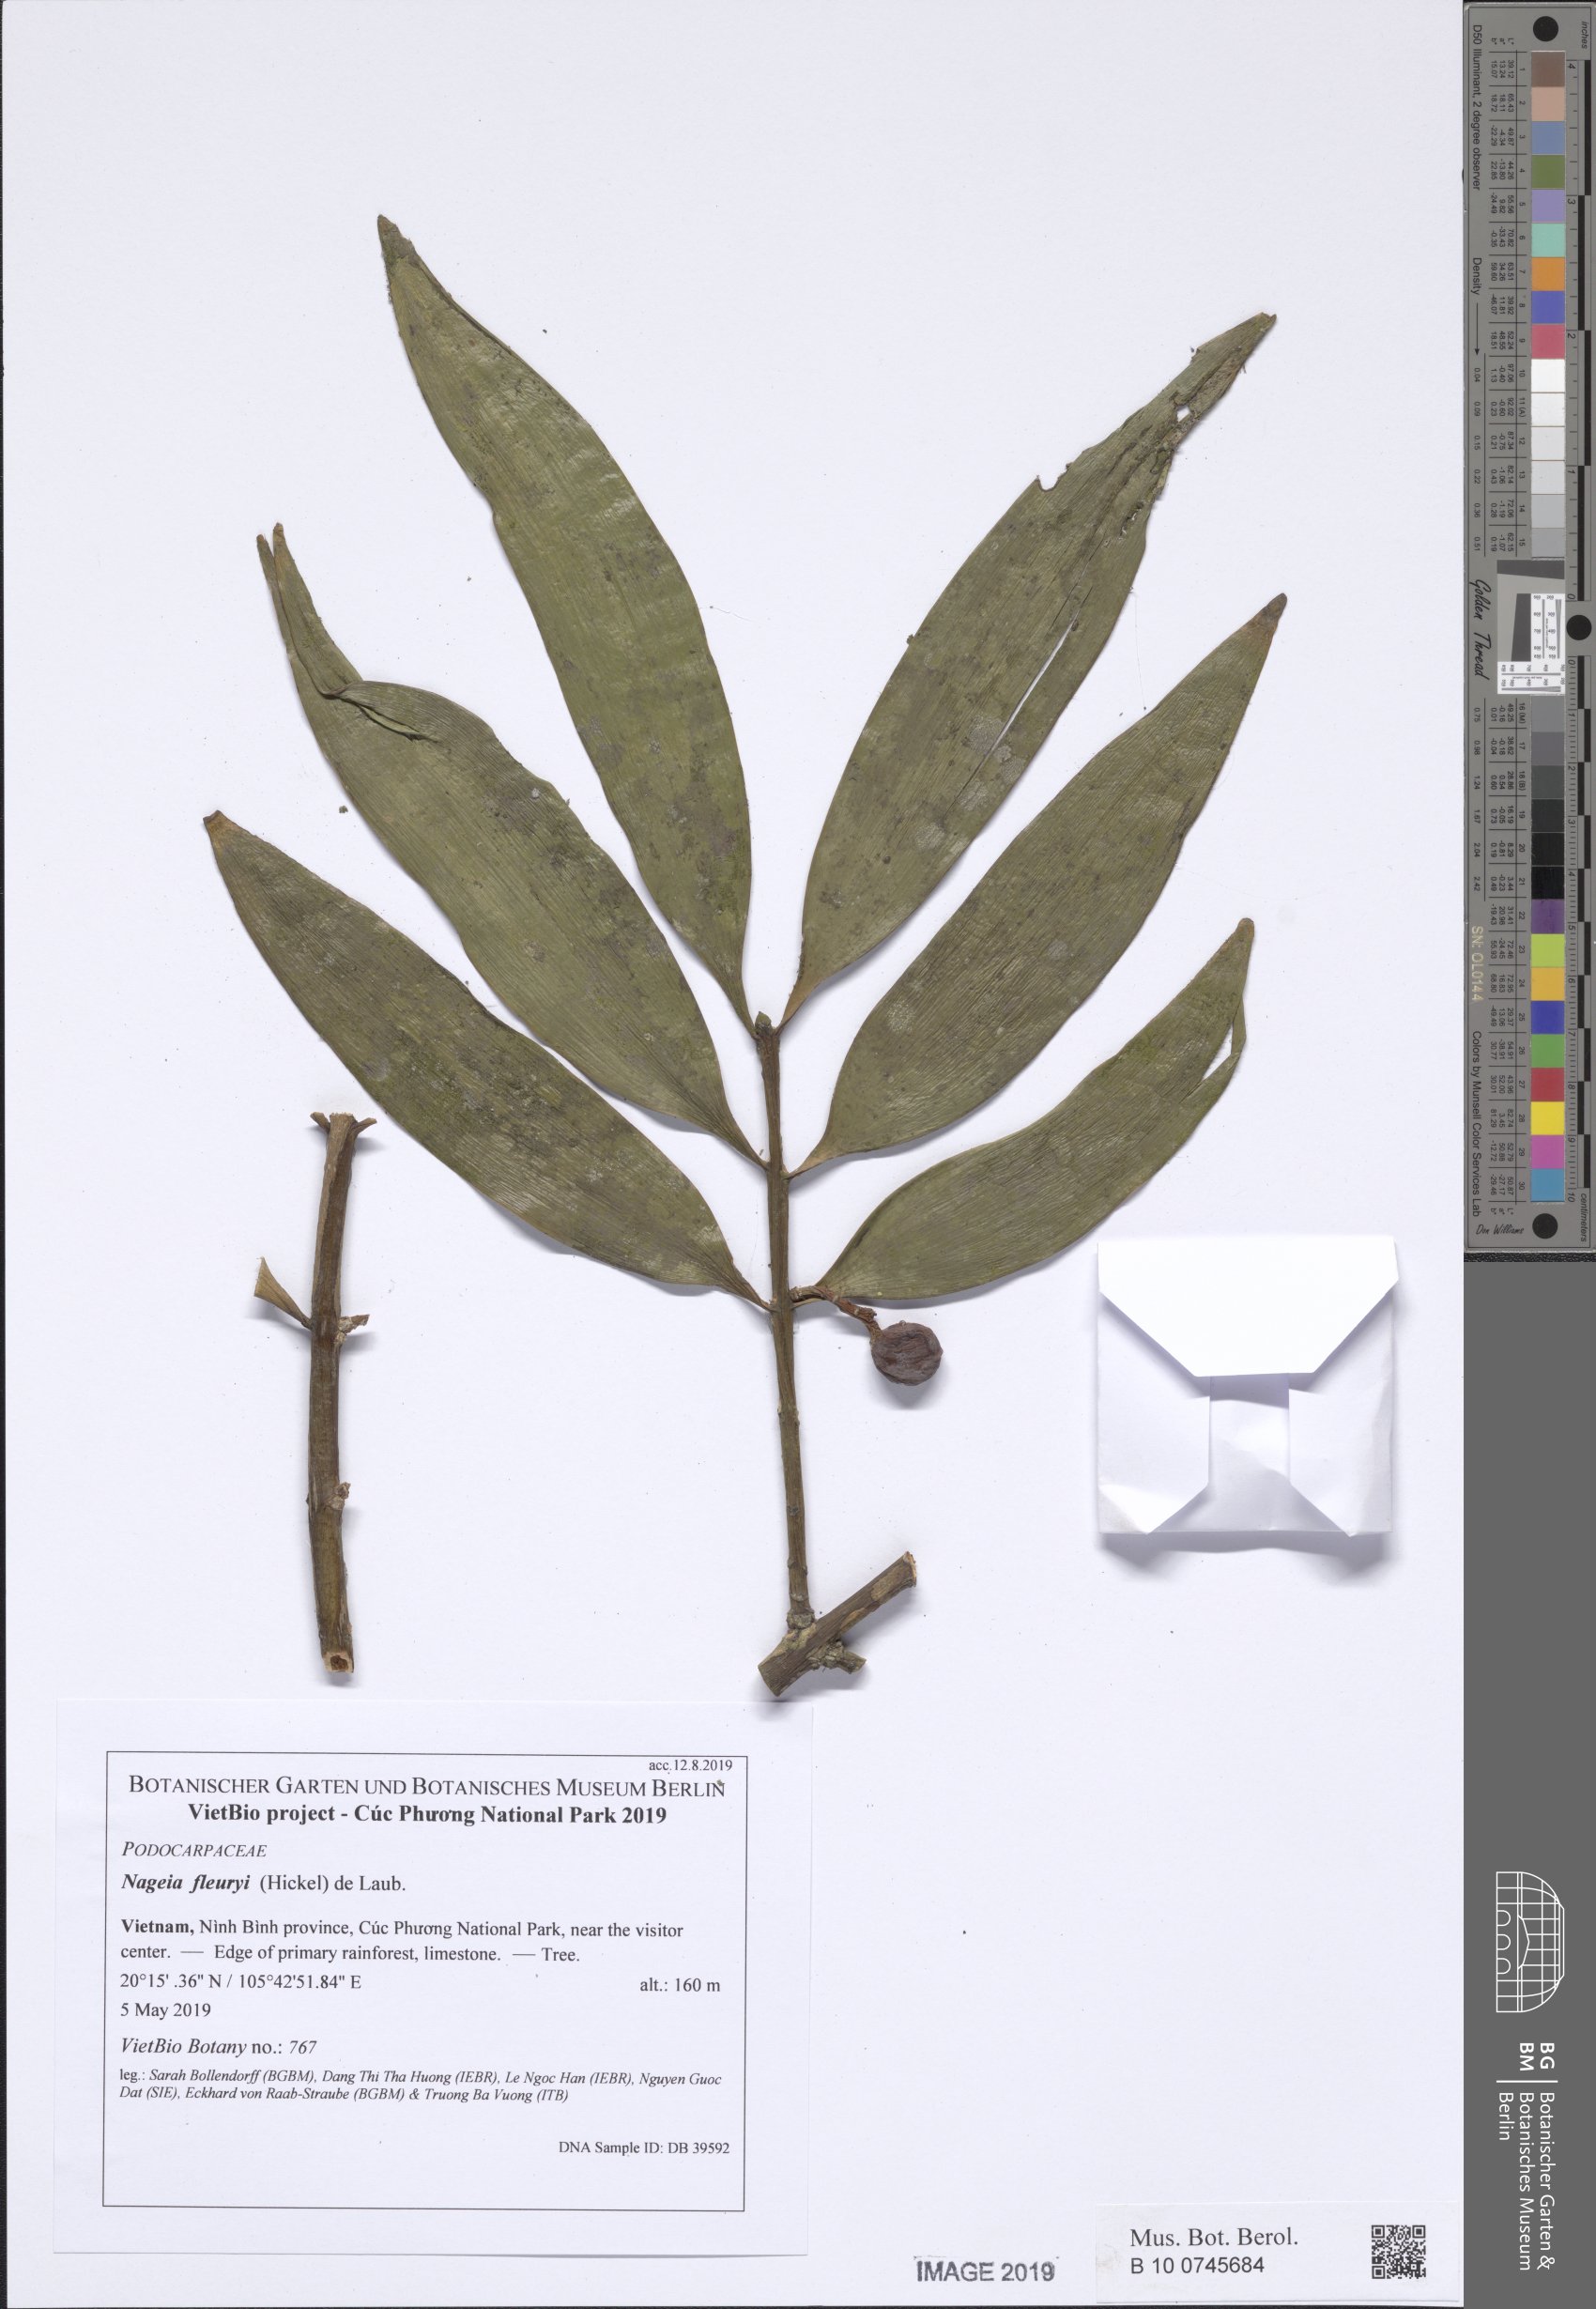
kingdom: Plantae
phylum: Tracheophyta
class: Pinopsida
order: Pinales
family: Podocarpaceae
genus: Nageia
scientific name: Nageia fleuryi
